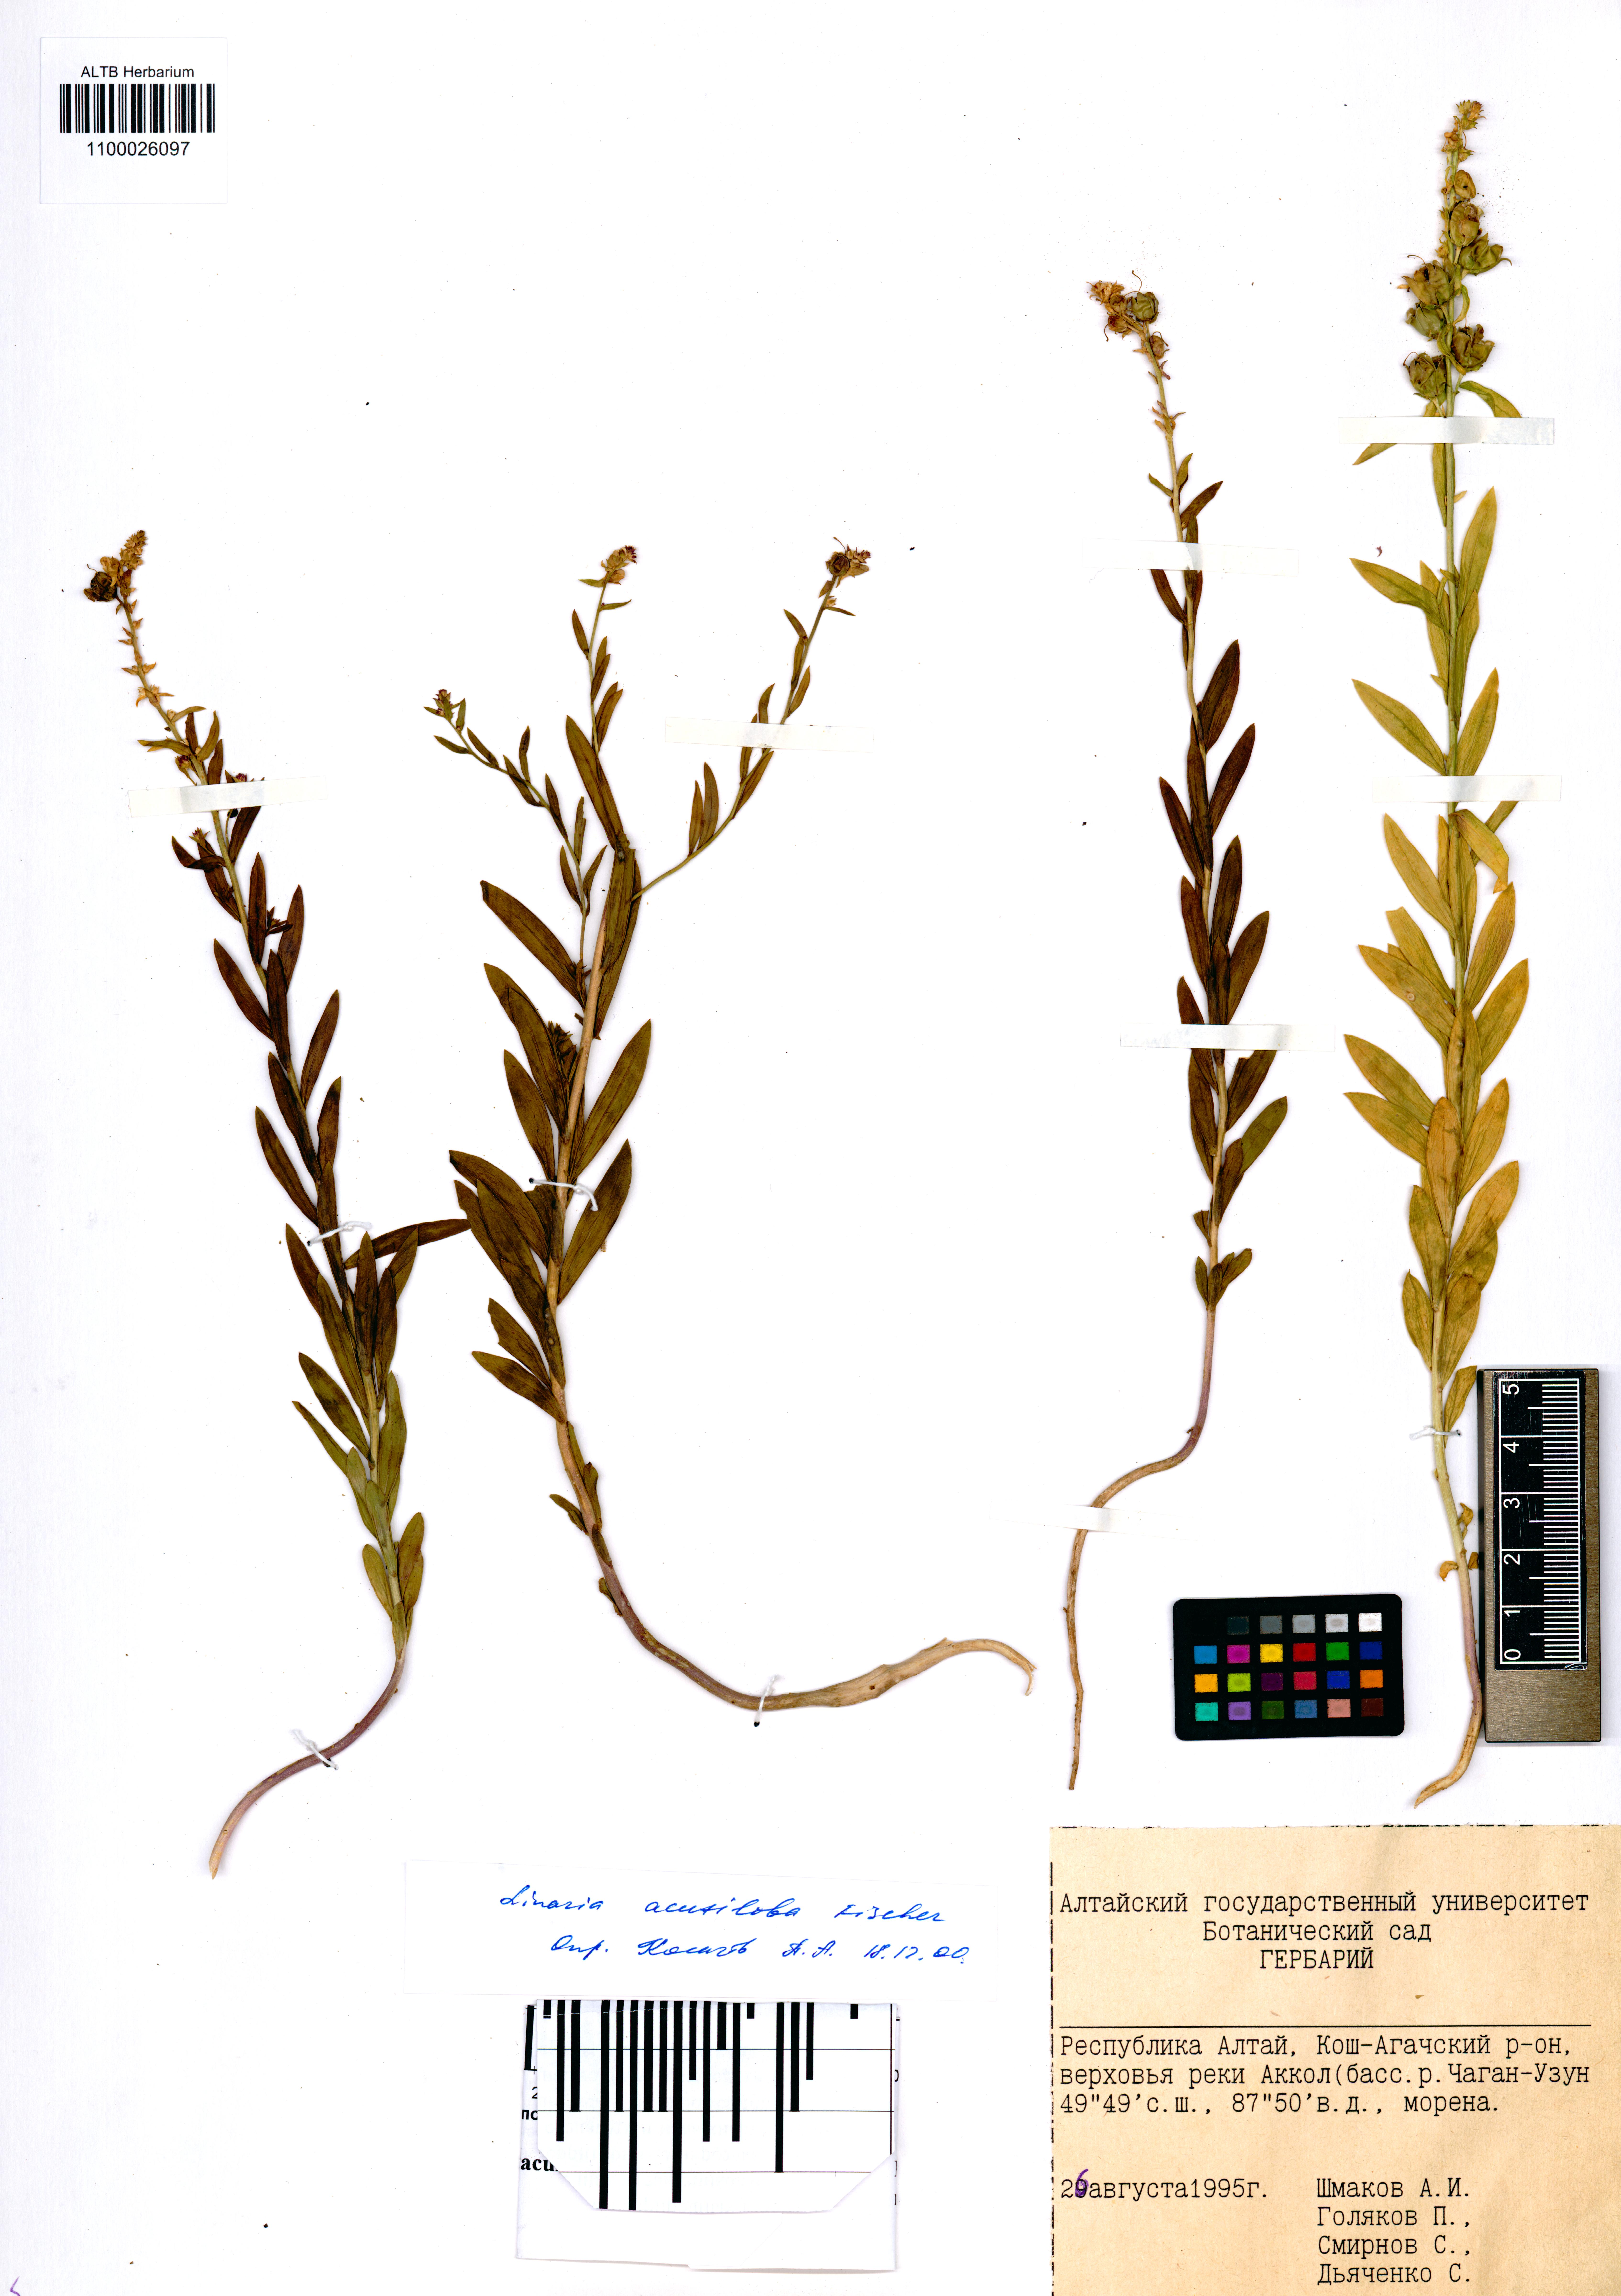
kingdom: Plantae
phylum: Tracheophyta
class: Magnoliopsida
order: Lamiales
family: Plantaginaceae
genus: Linaria
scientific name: Linaria acutiloba
